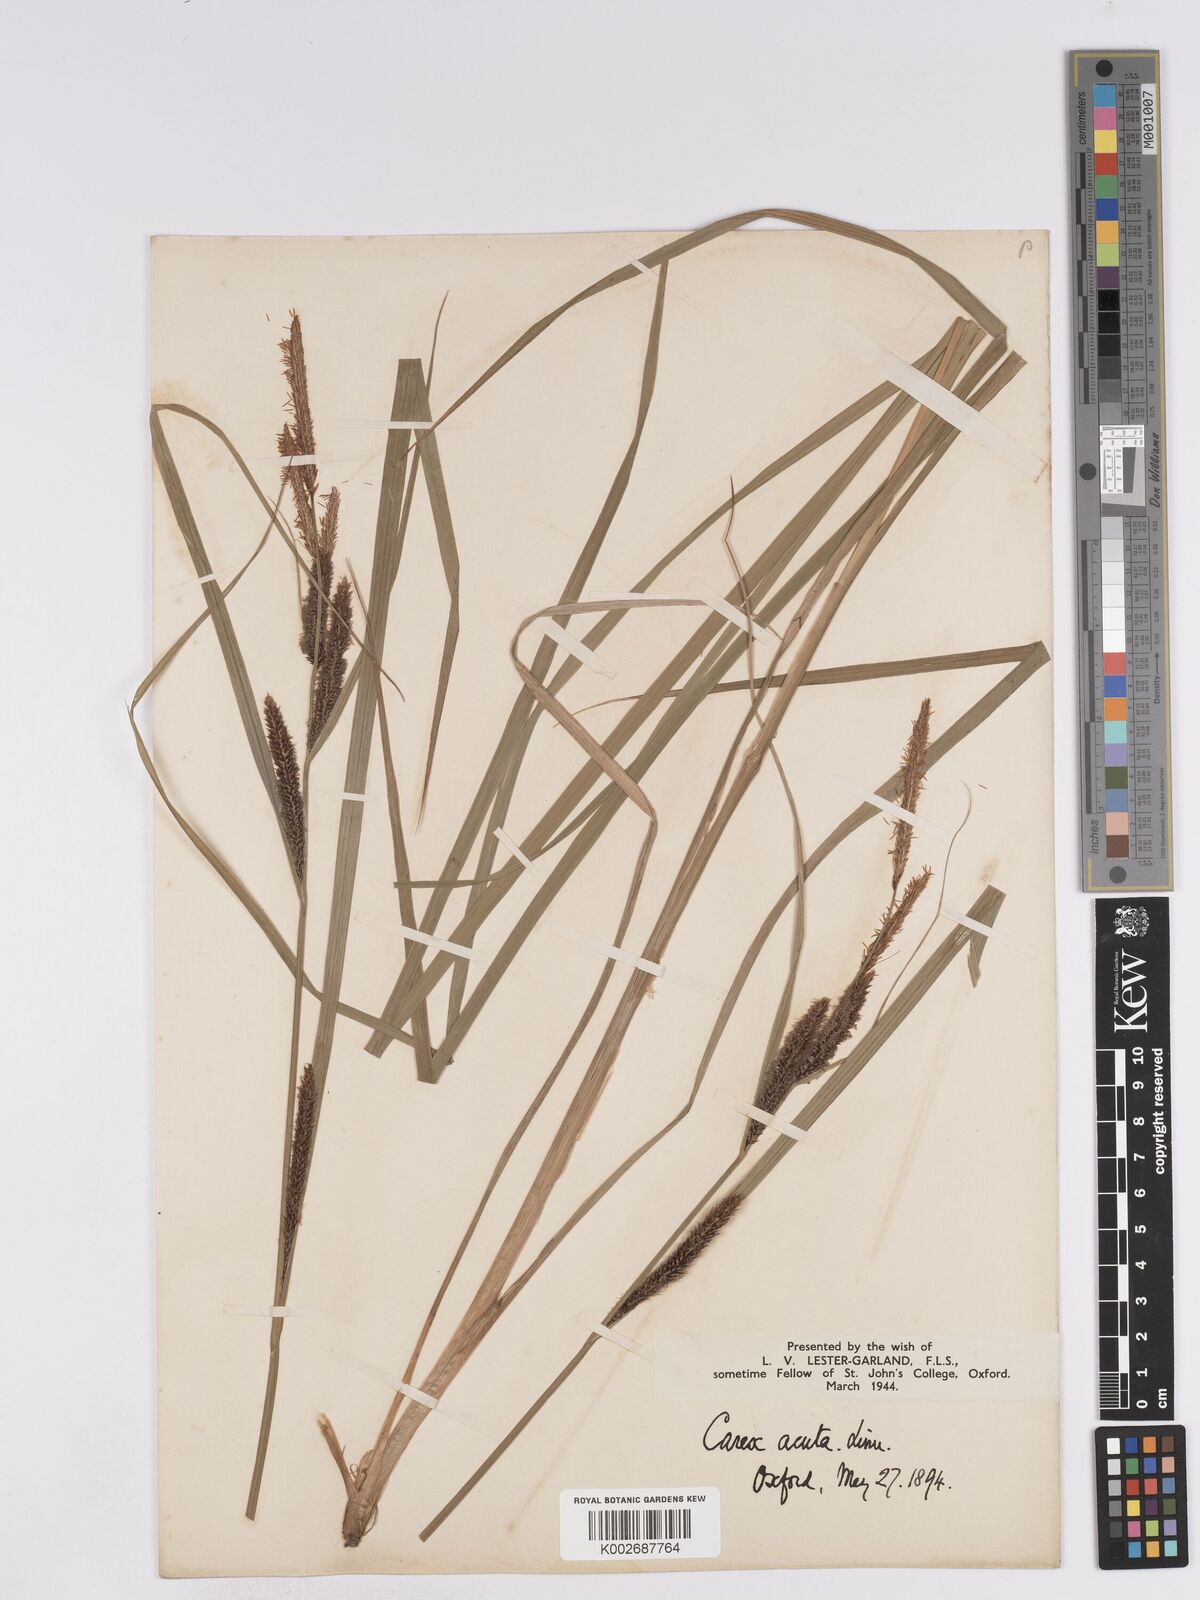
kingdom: Plantae
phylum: Tracheophyta
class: Liliopsida
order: Poales
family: Cyperaceae
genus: Carex
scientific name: Carex acuta
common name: Slender tufted-sedge
